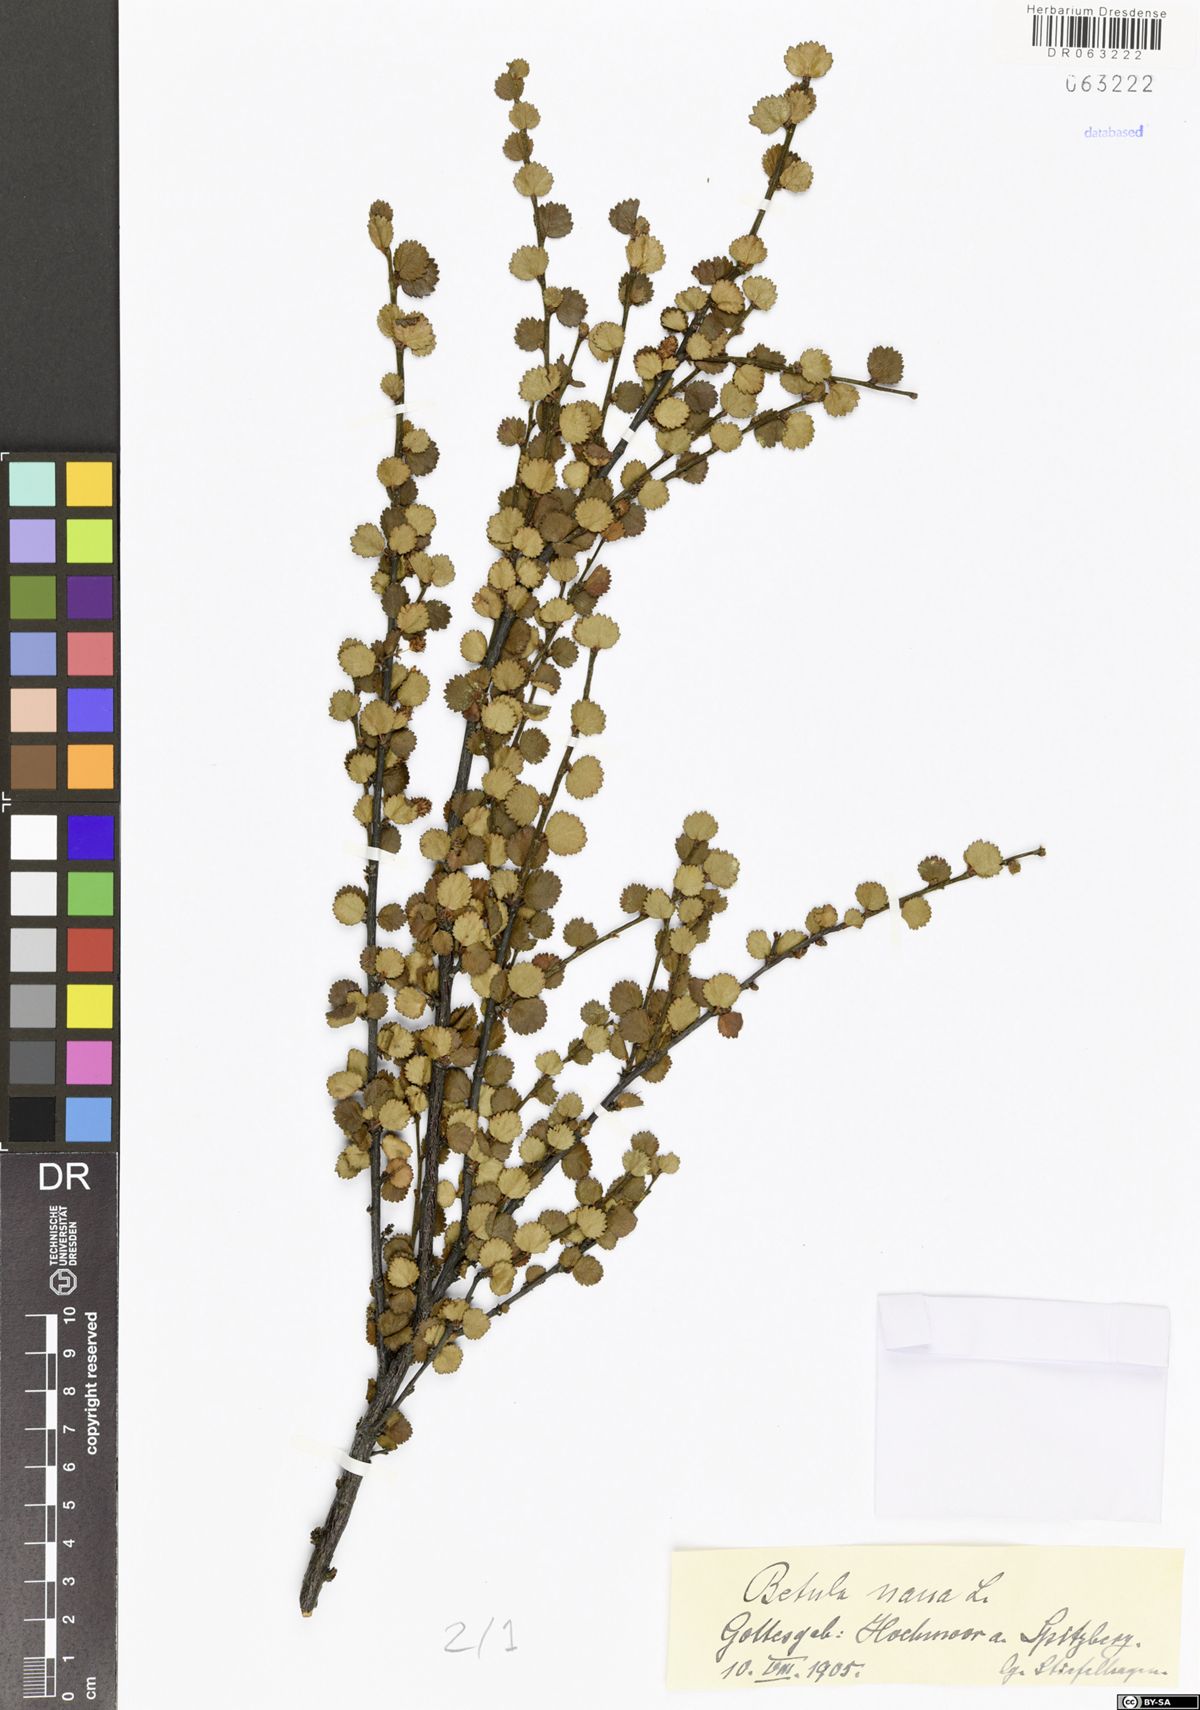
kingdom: Plantae
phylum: Tracheophyta
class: Magnoliopsida
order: Fagales
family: Betulaceae
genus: Betula
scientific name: Betula nana
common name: Arctic dwarf birch
